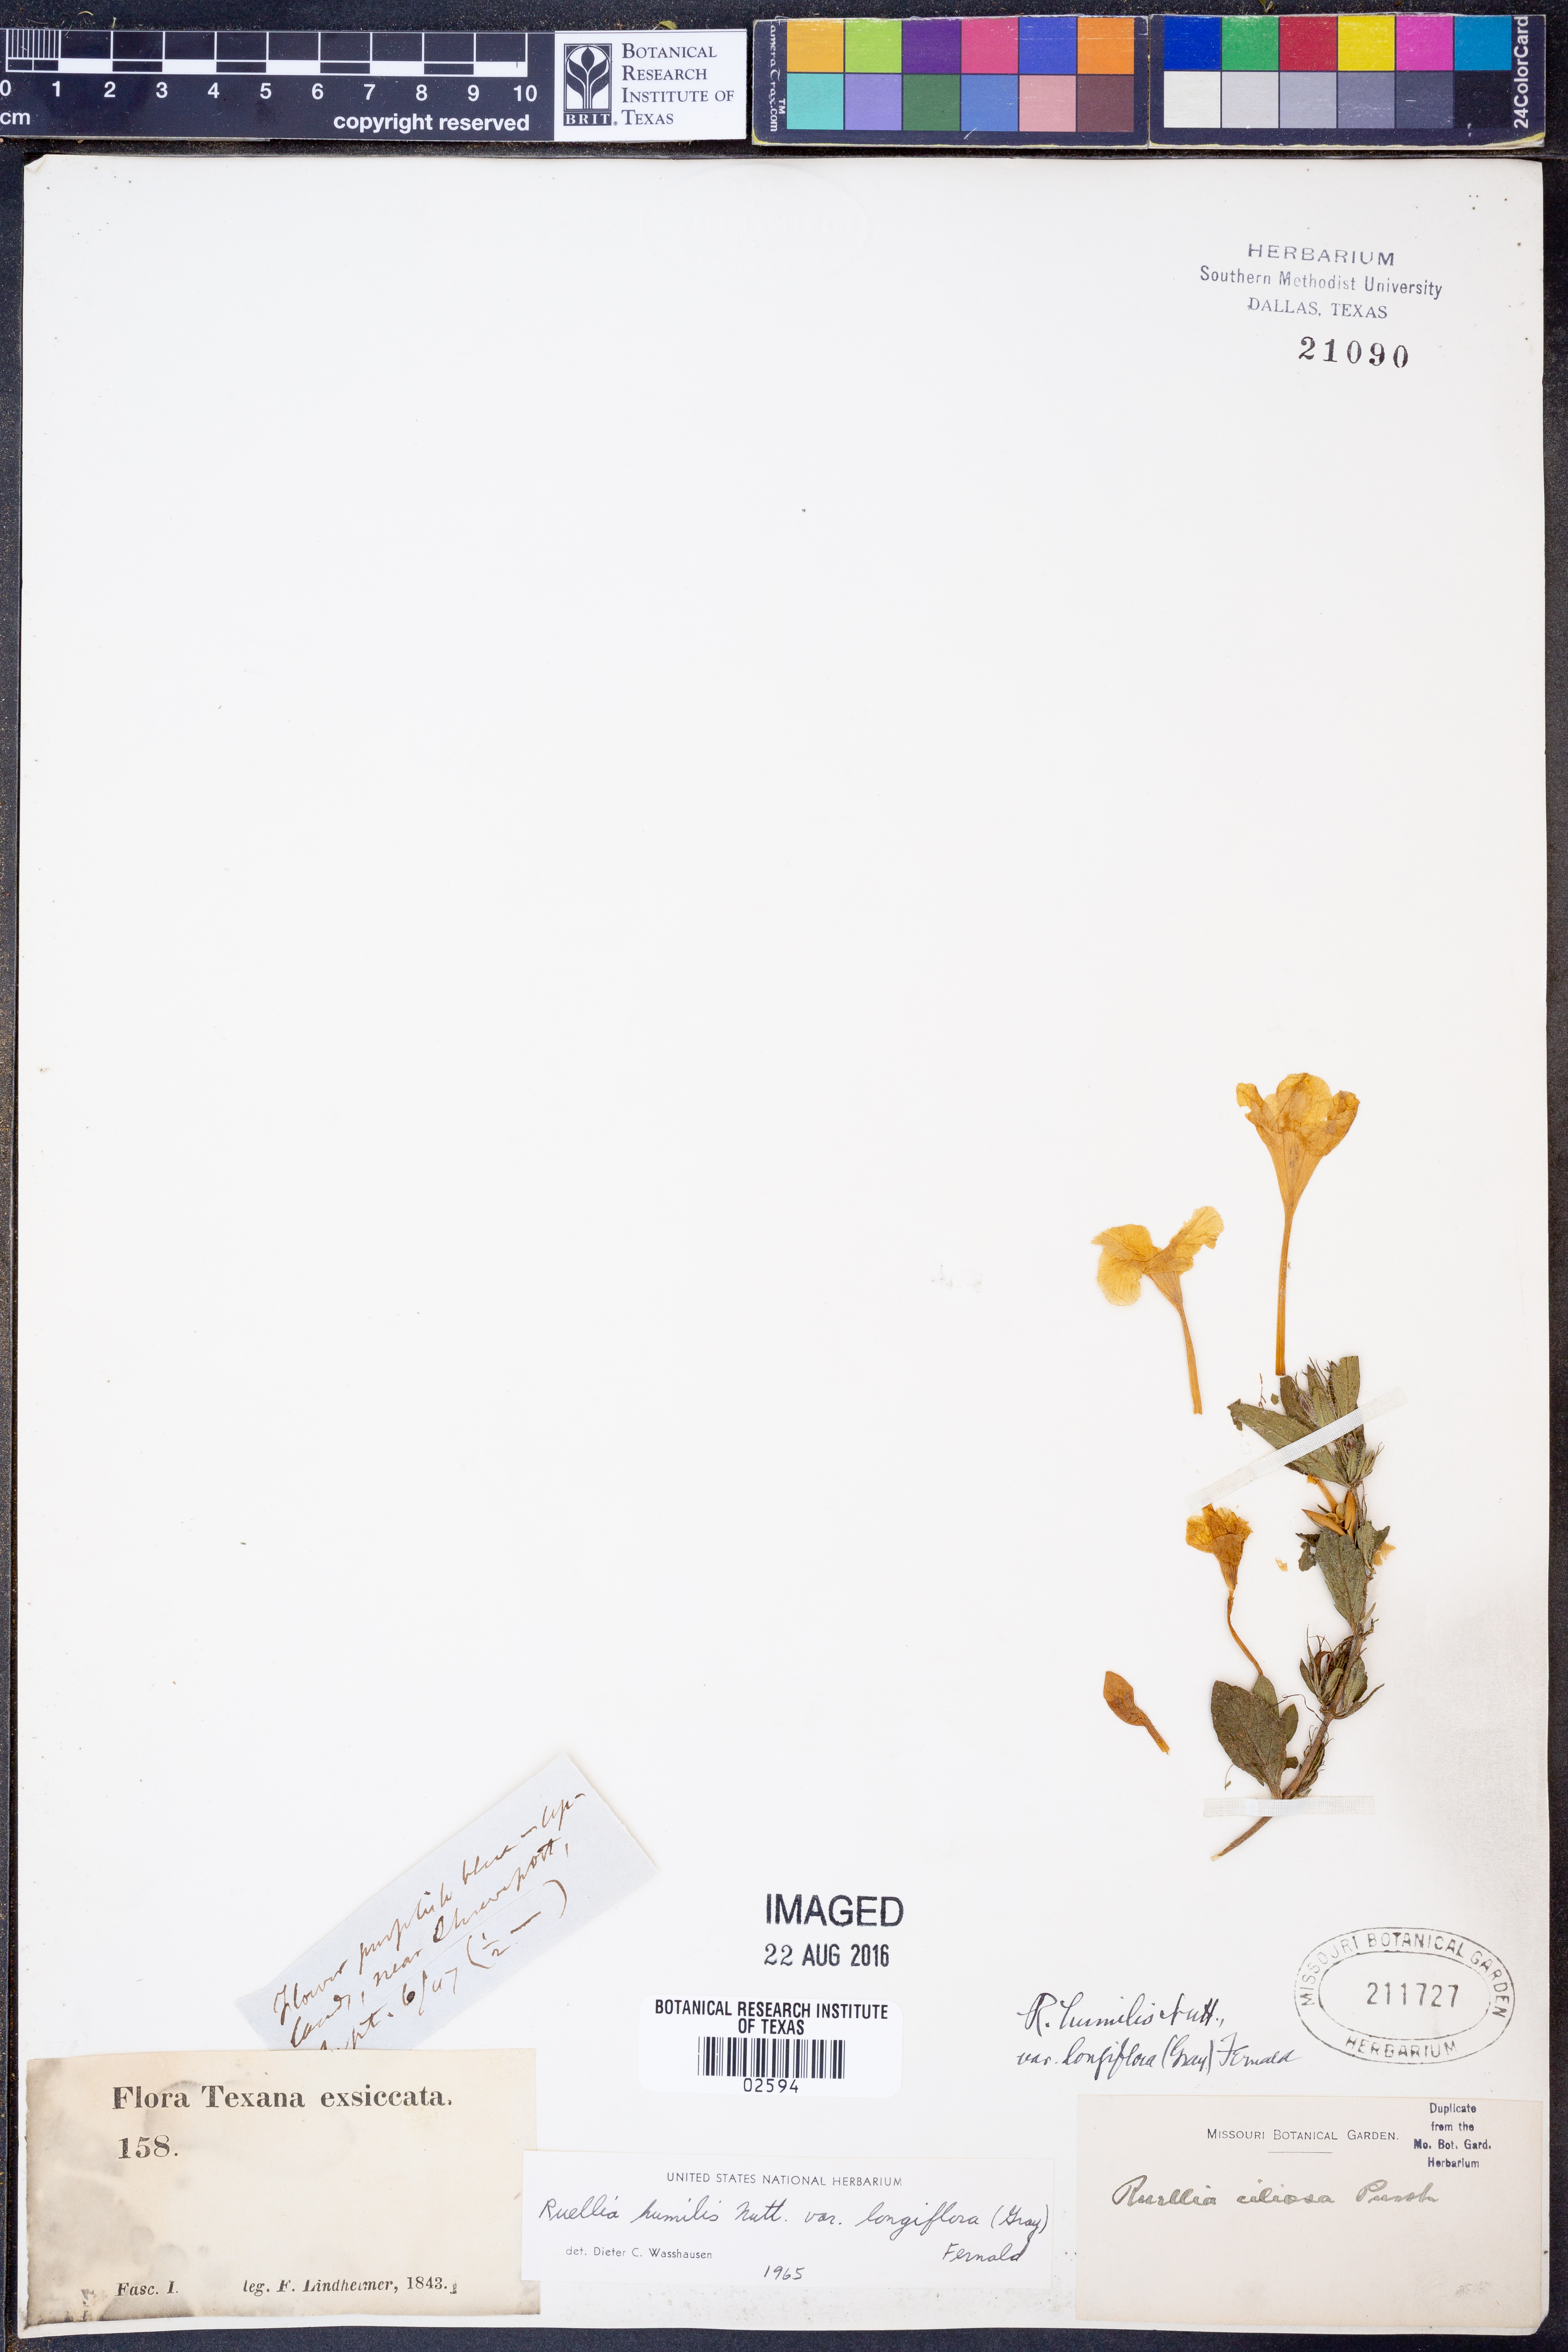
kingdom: Plantae
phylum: Tracheophyta
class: Magnoliopsida
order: Lamiales
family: Acanthaceae
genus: Ruellia
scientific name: Ruellia humilis
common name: Fringe-leaf ruellia
